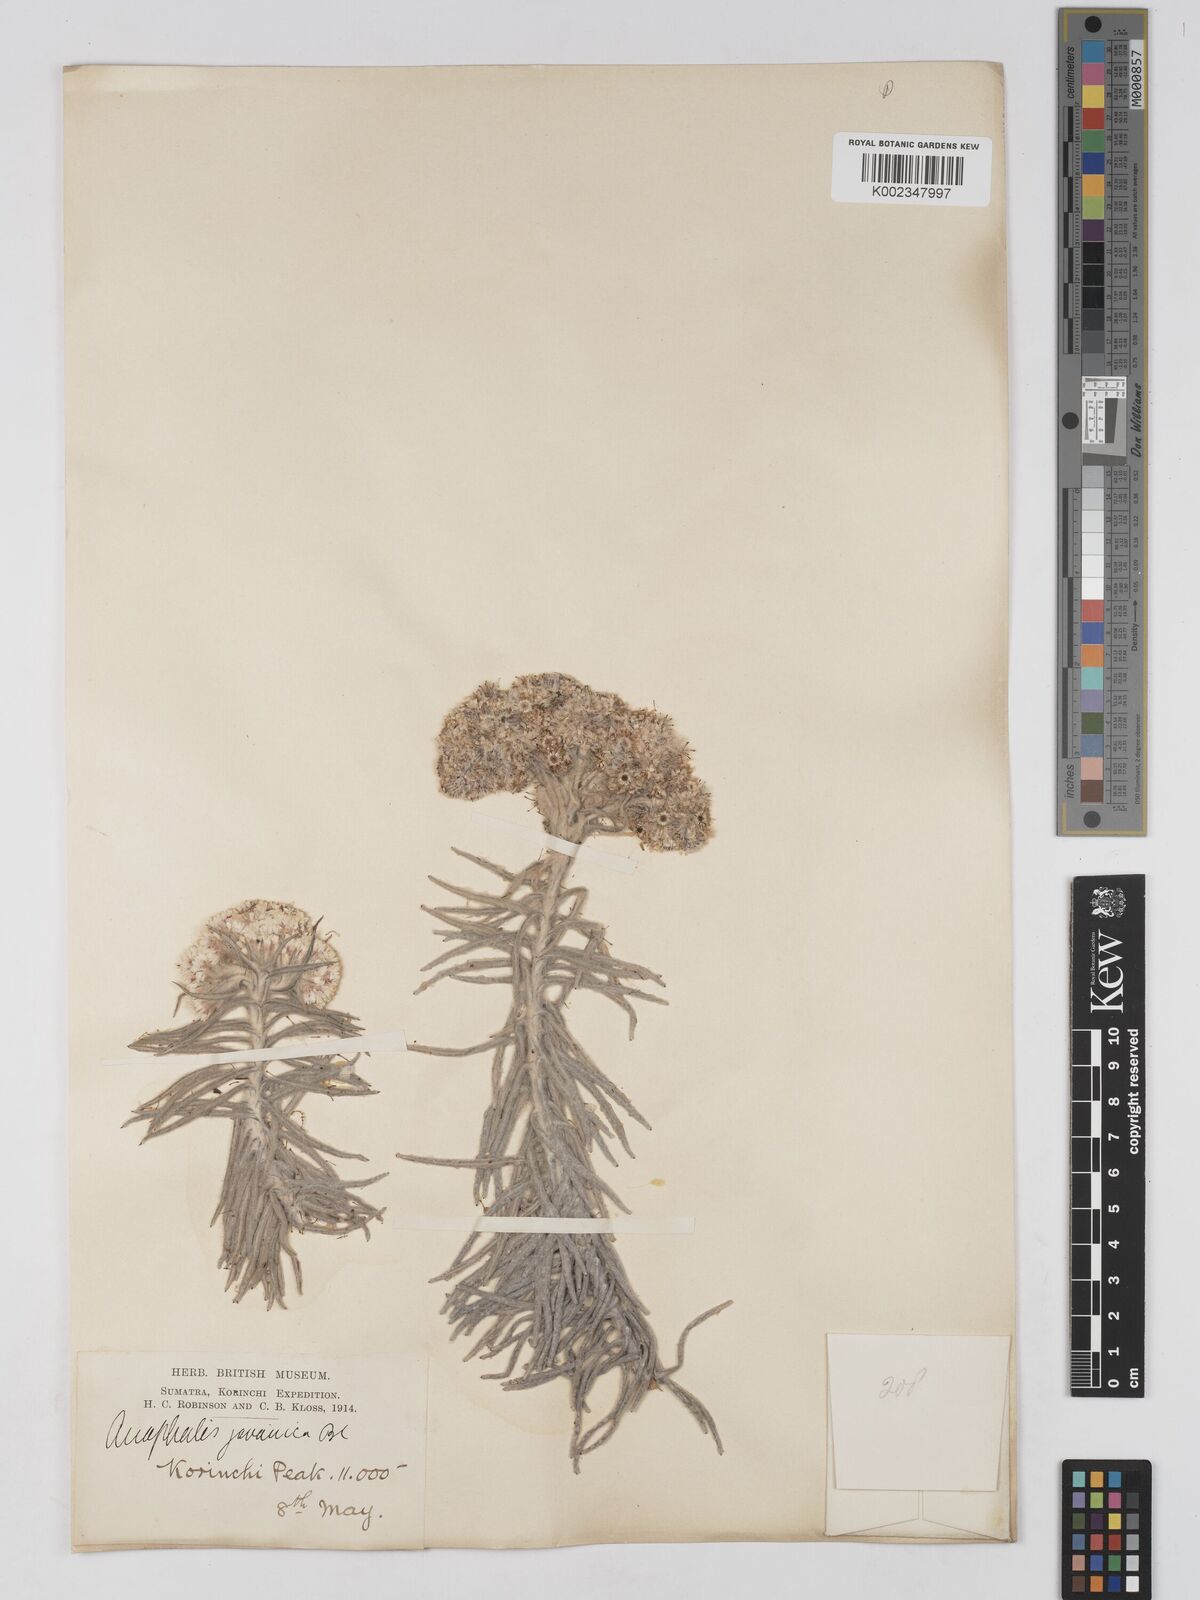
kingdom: Plantae
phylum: Tracheophyta
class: Magnoliopsida
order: Asterales
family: Asteraceae
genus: Anaphalis
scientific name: Anaphalis javanica
